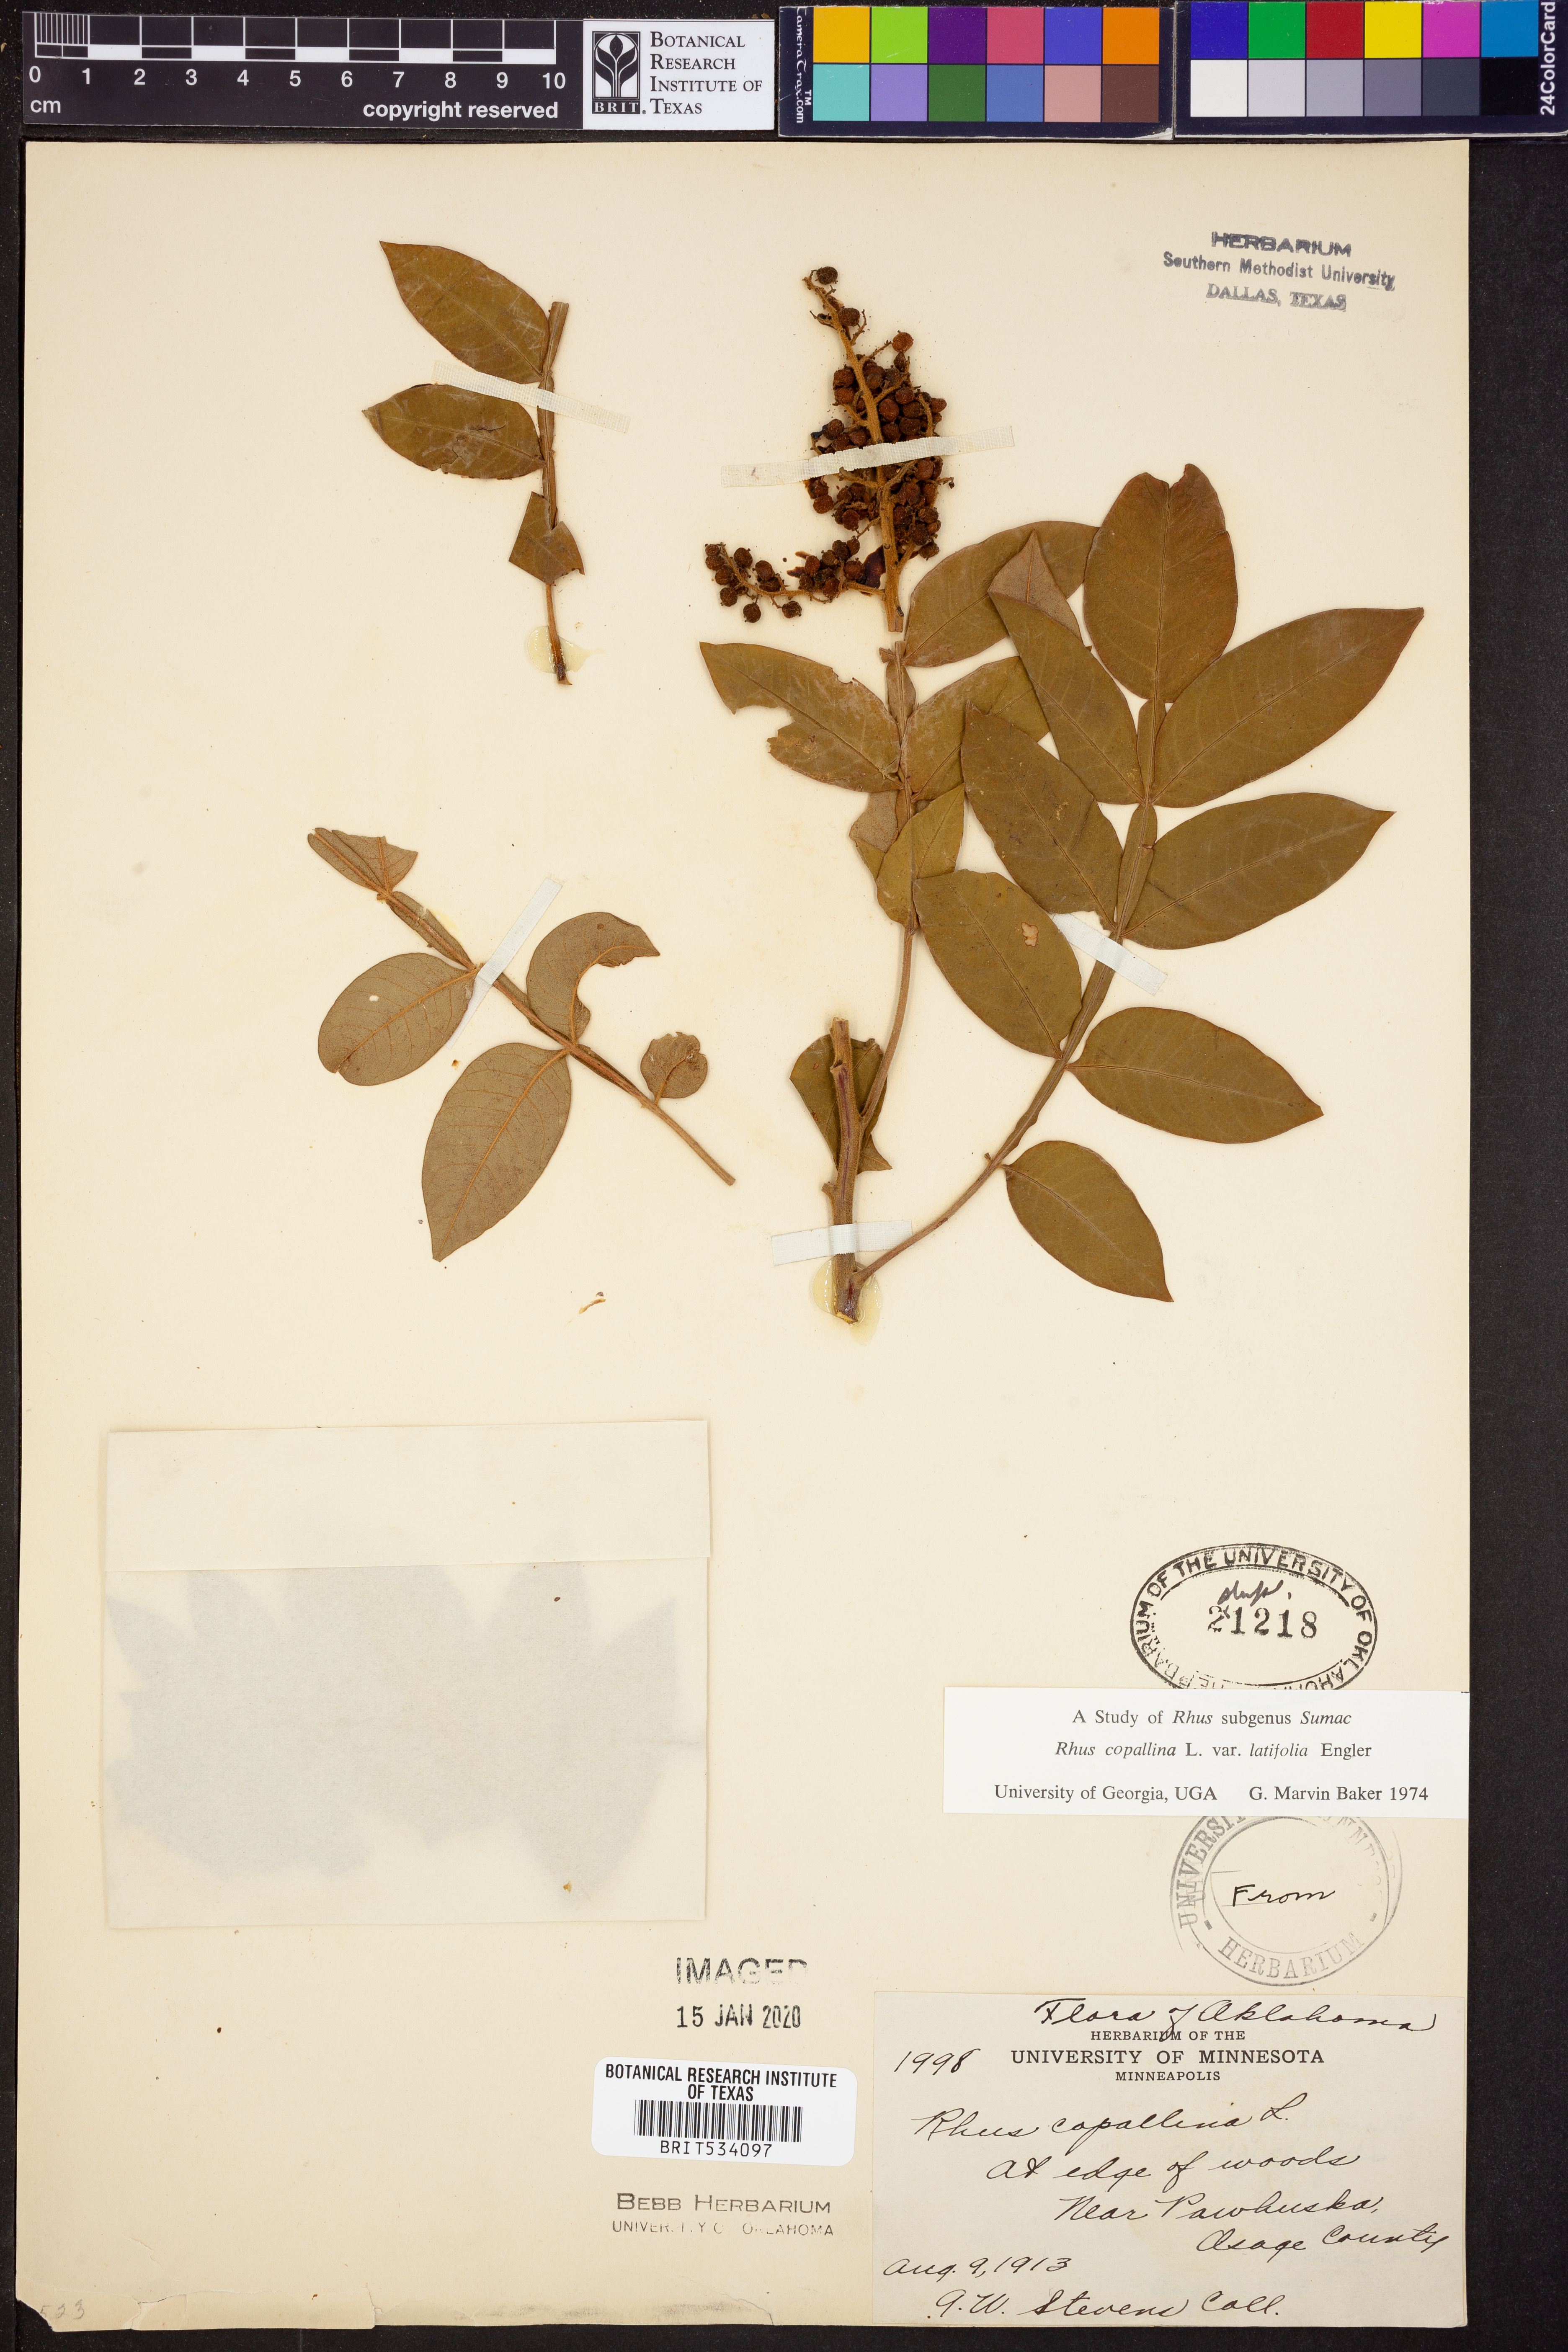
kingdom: Plantae
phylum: Tracheophyta
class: Magnoliopsida
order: Sapindales
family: Anacardiaceae
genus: Rhus
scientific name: Rhus copallina
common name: Shining sumac
